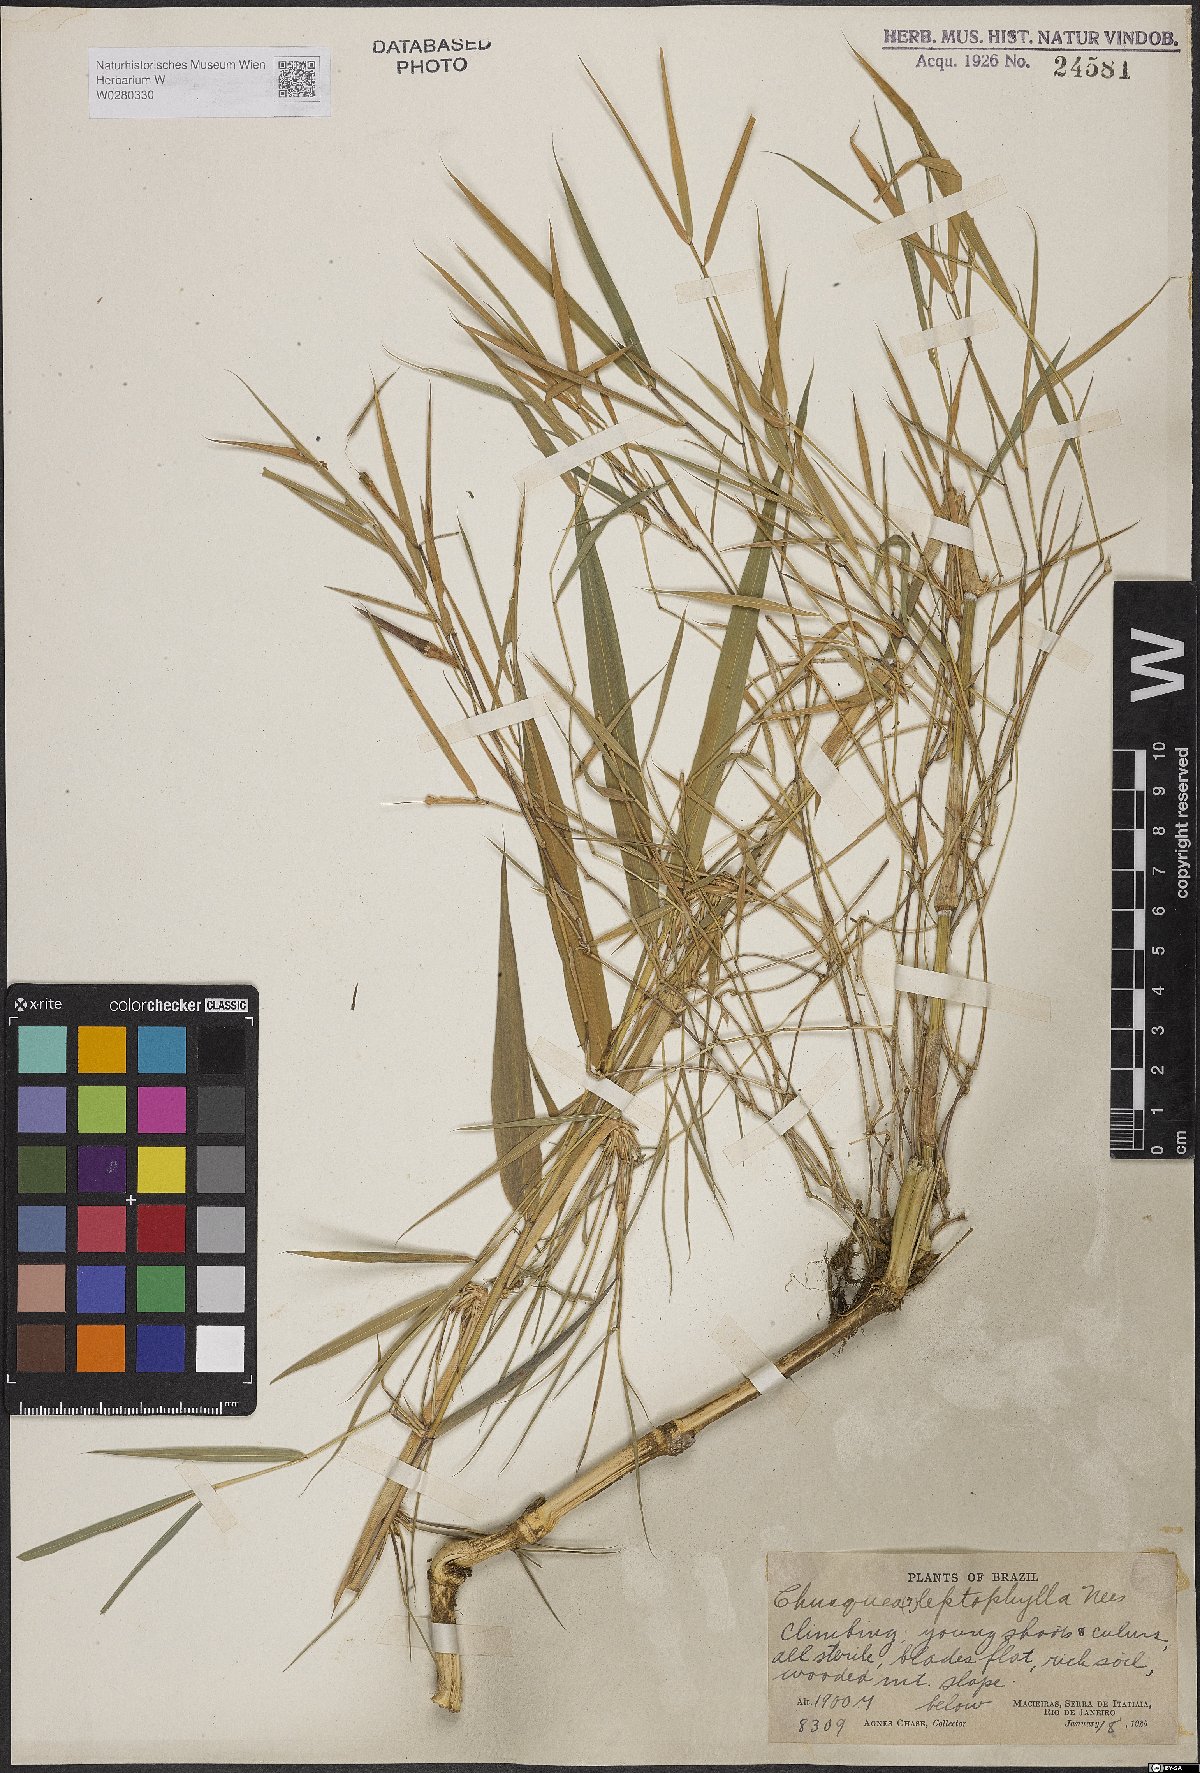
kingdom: Plantae
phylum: Tracheophyta
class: Liliopsida
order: Poales
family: Poaceae
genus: Chusquea
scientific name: Chusquea leptophylla
